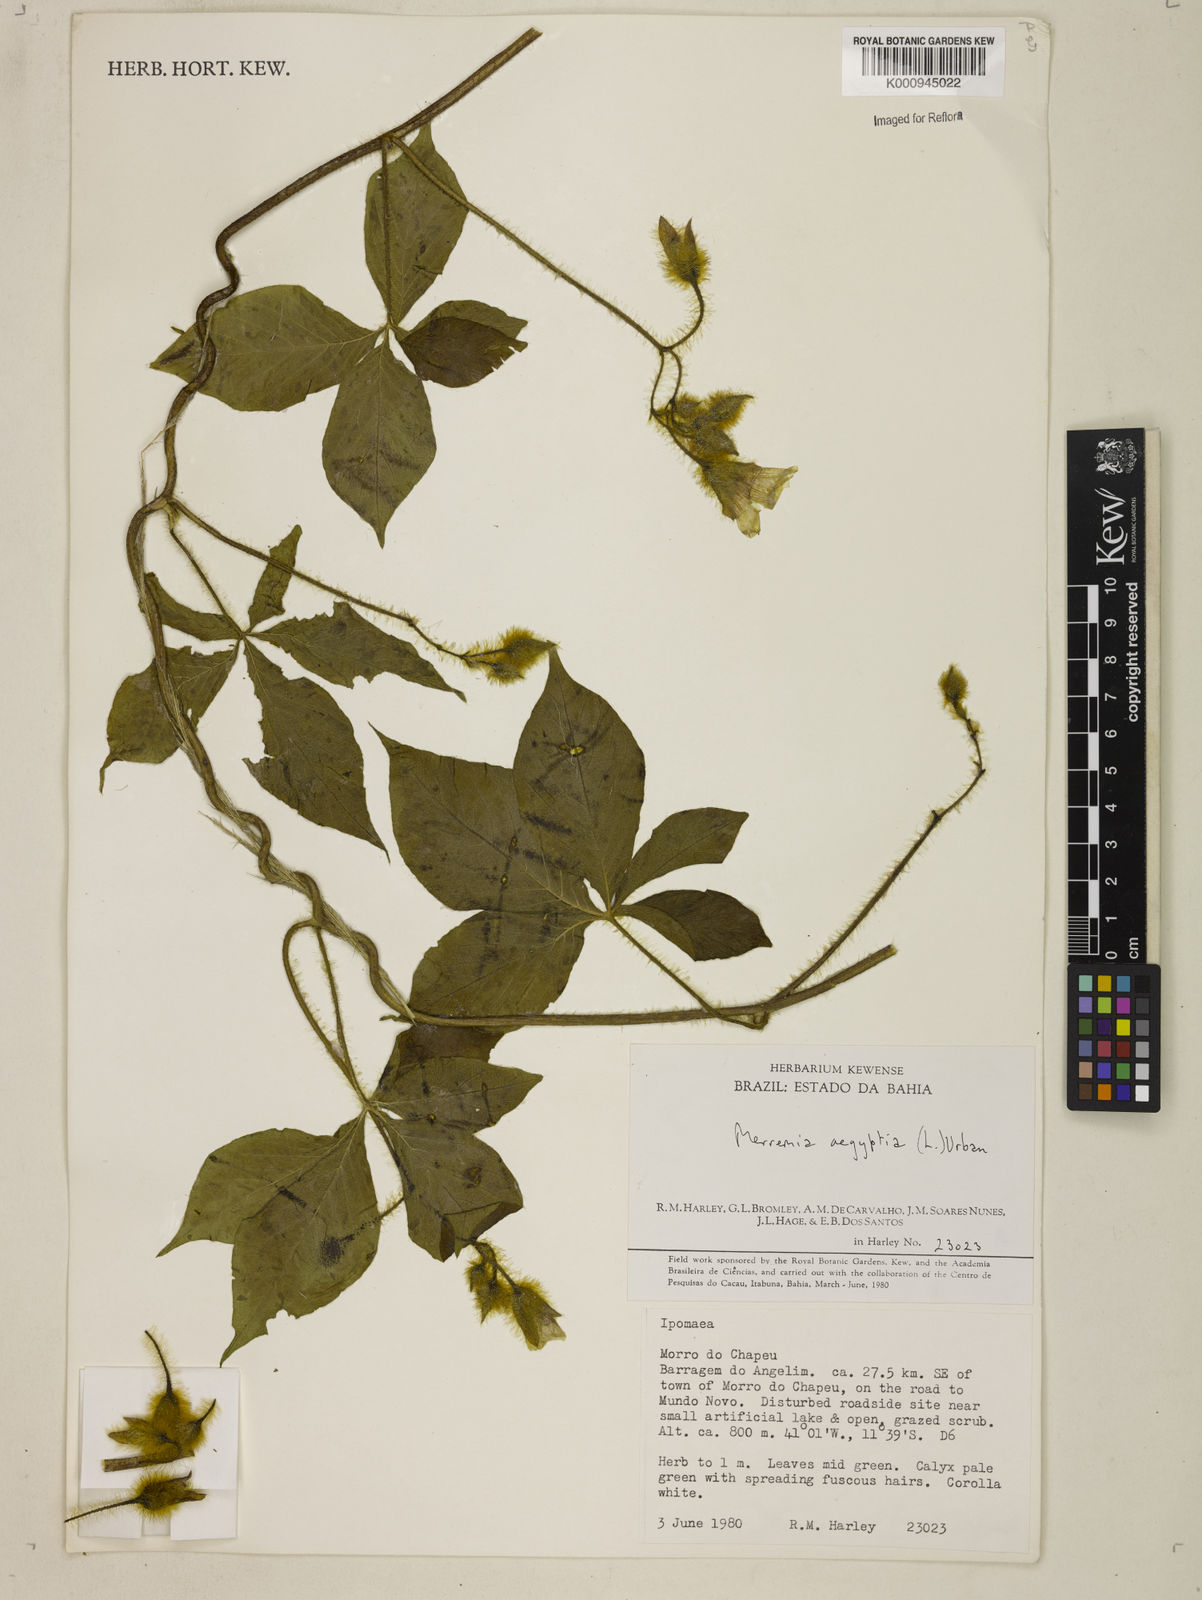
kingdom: Plantae
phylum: Tracheophyta
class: Magnoliopsida
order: Solanales
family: Convolvulaceae
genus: Distimake
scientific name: Distimake aegyptius
